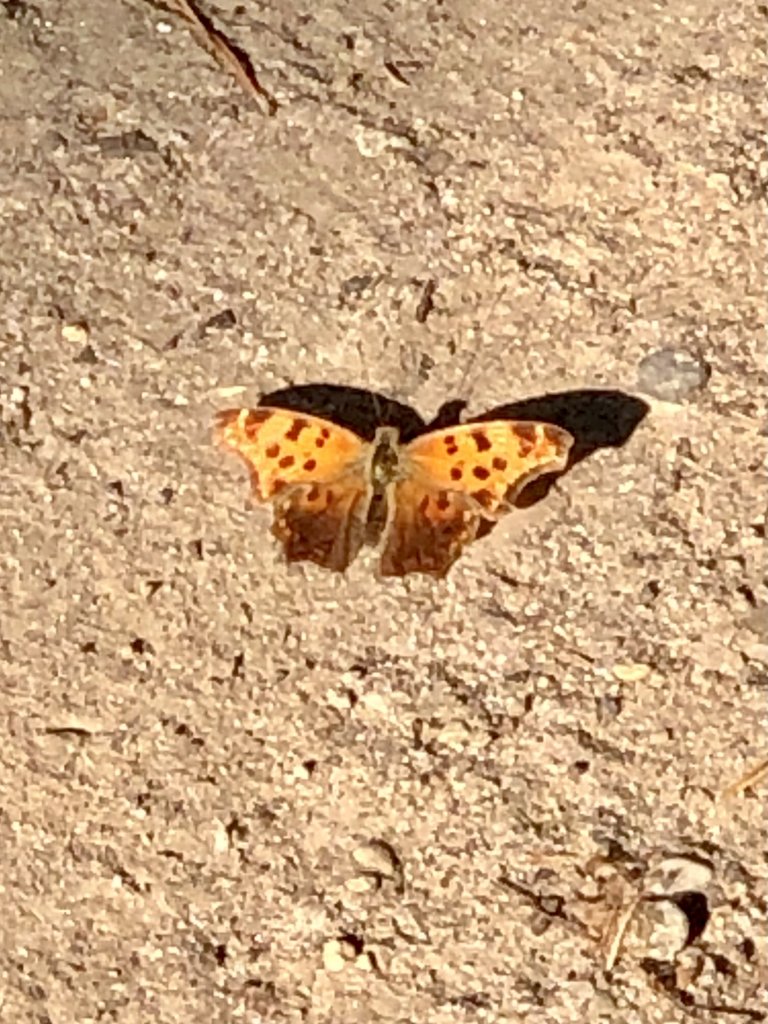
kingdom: Animalia
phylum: Arthropoda
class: Insecta
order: Lepidoptera
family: Nymphalidae
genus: Polygonia
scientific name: Polygonia comma
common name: Eastern Comma
